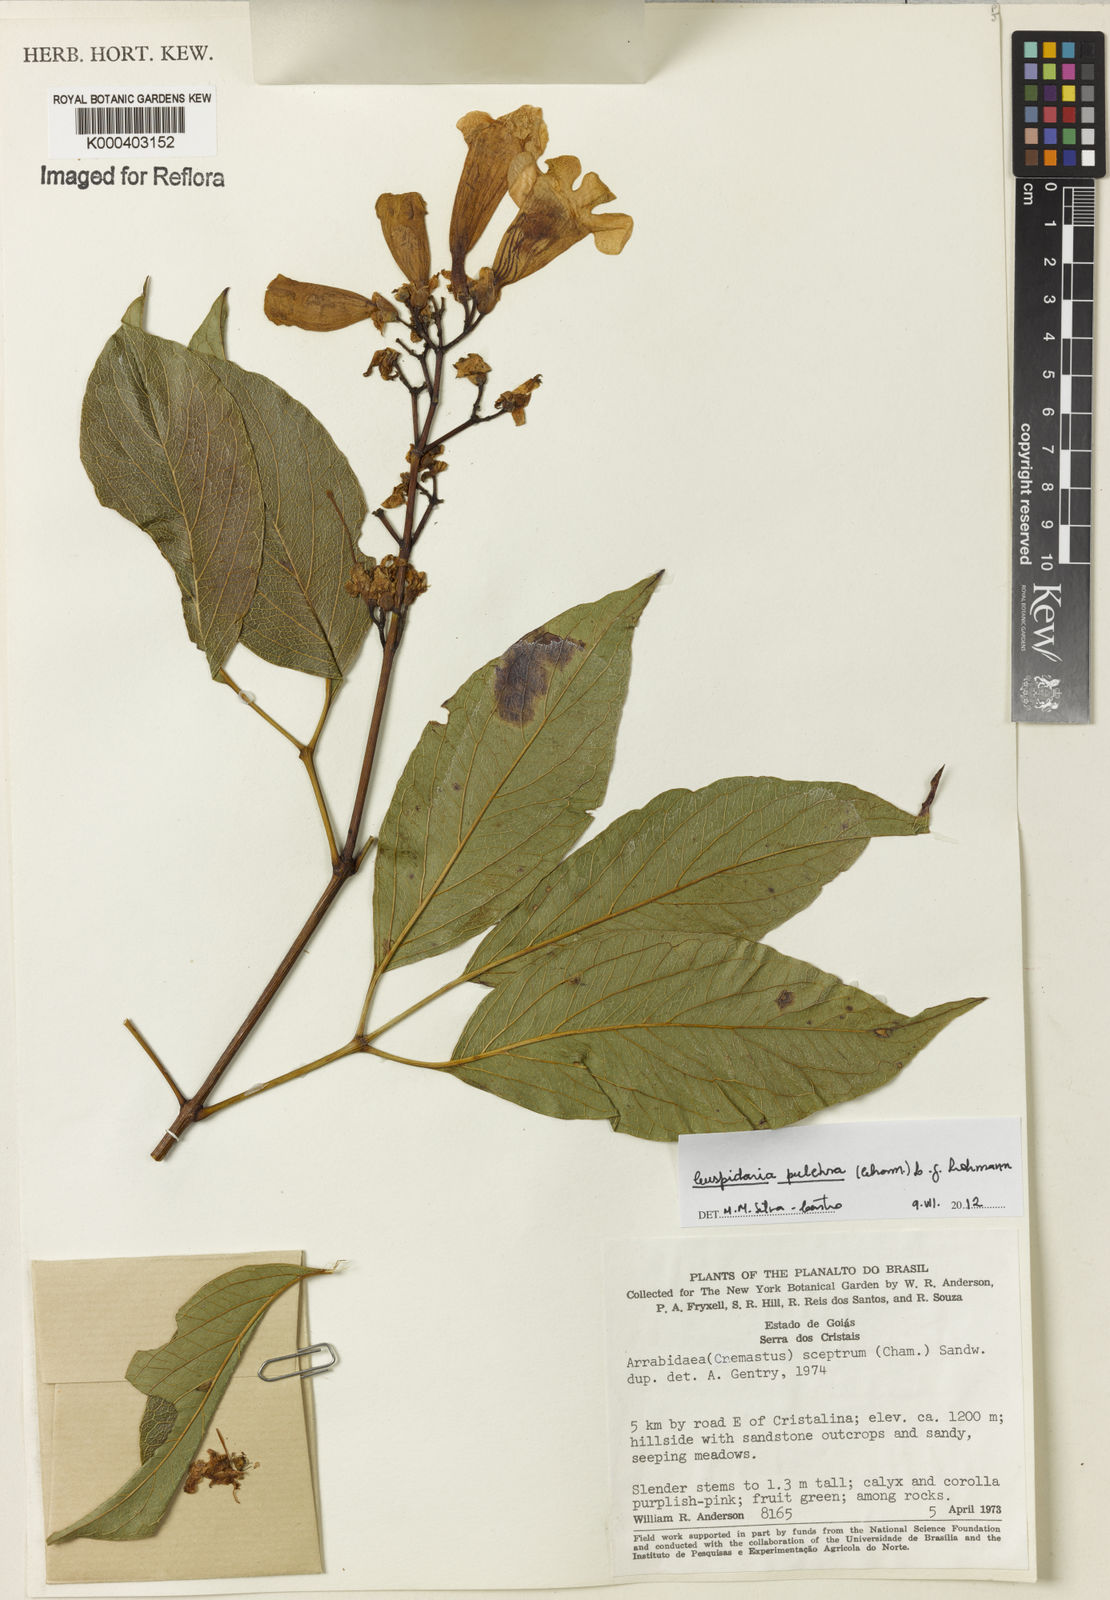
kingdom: Plantae
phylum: Tracheophyta
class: Magnoliopsida
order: Lamiales
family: Bignoniaceae
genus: Cuspidaria
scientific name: Cuspidaria pulchra
